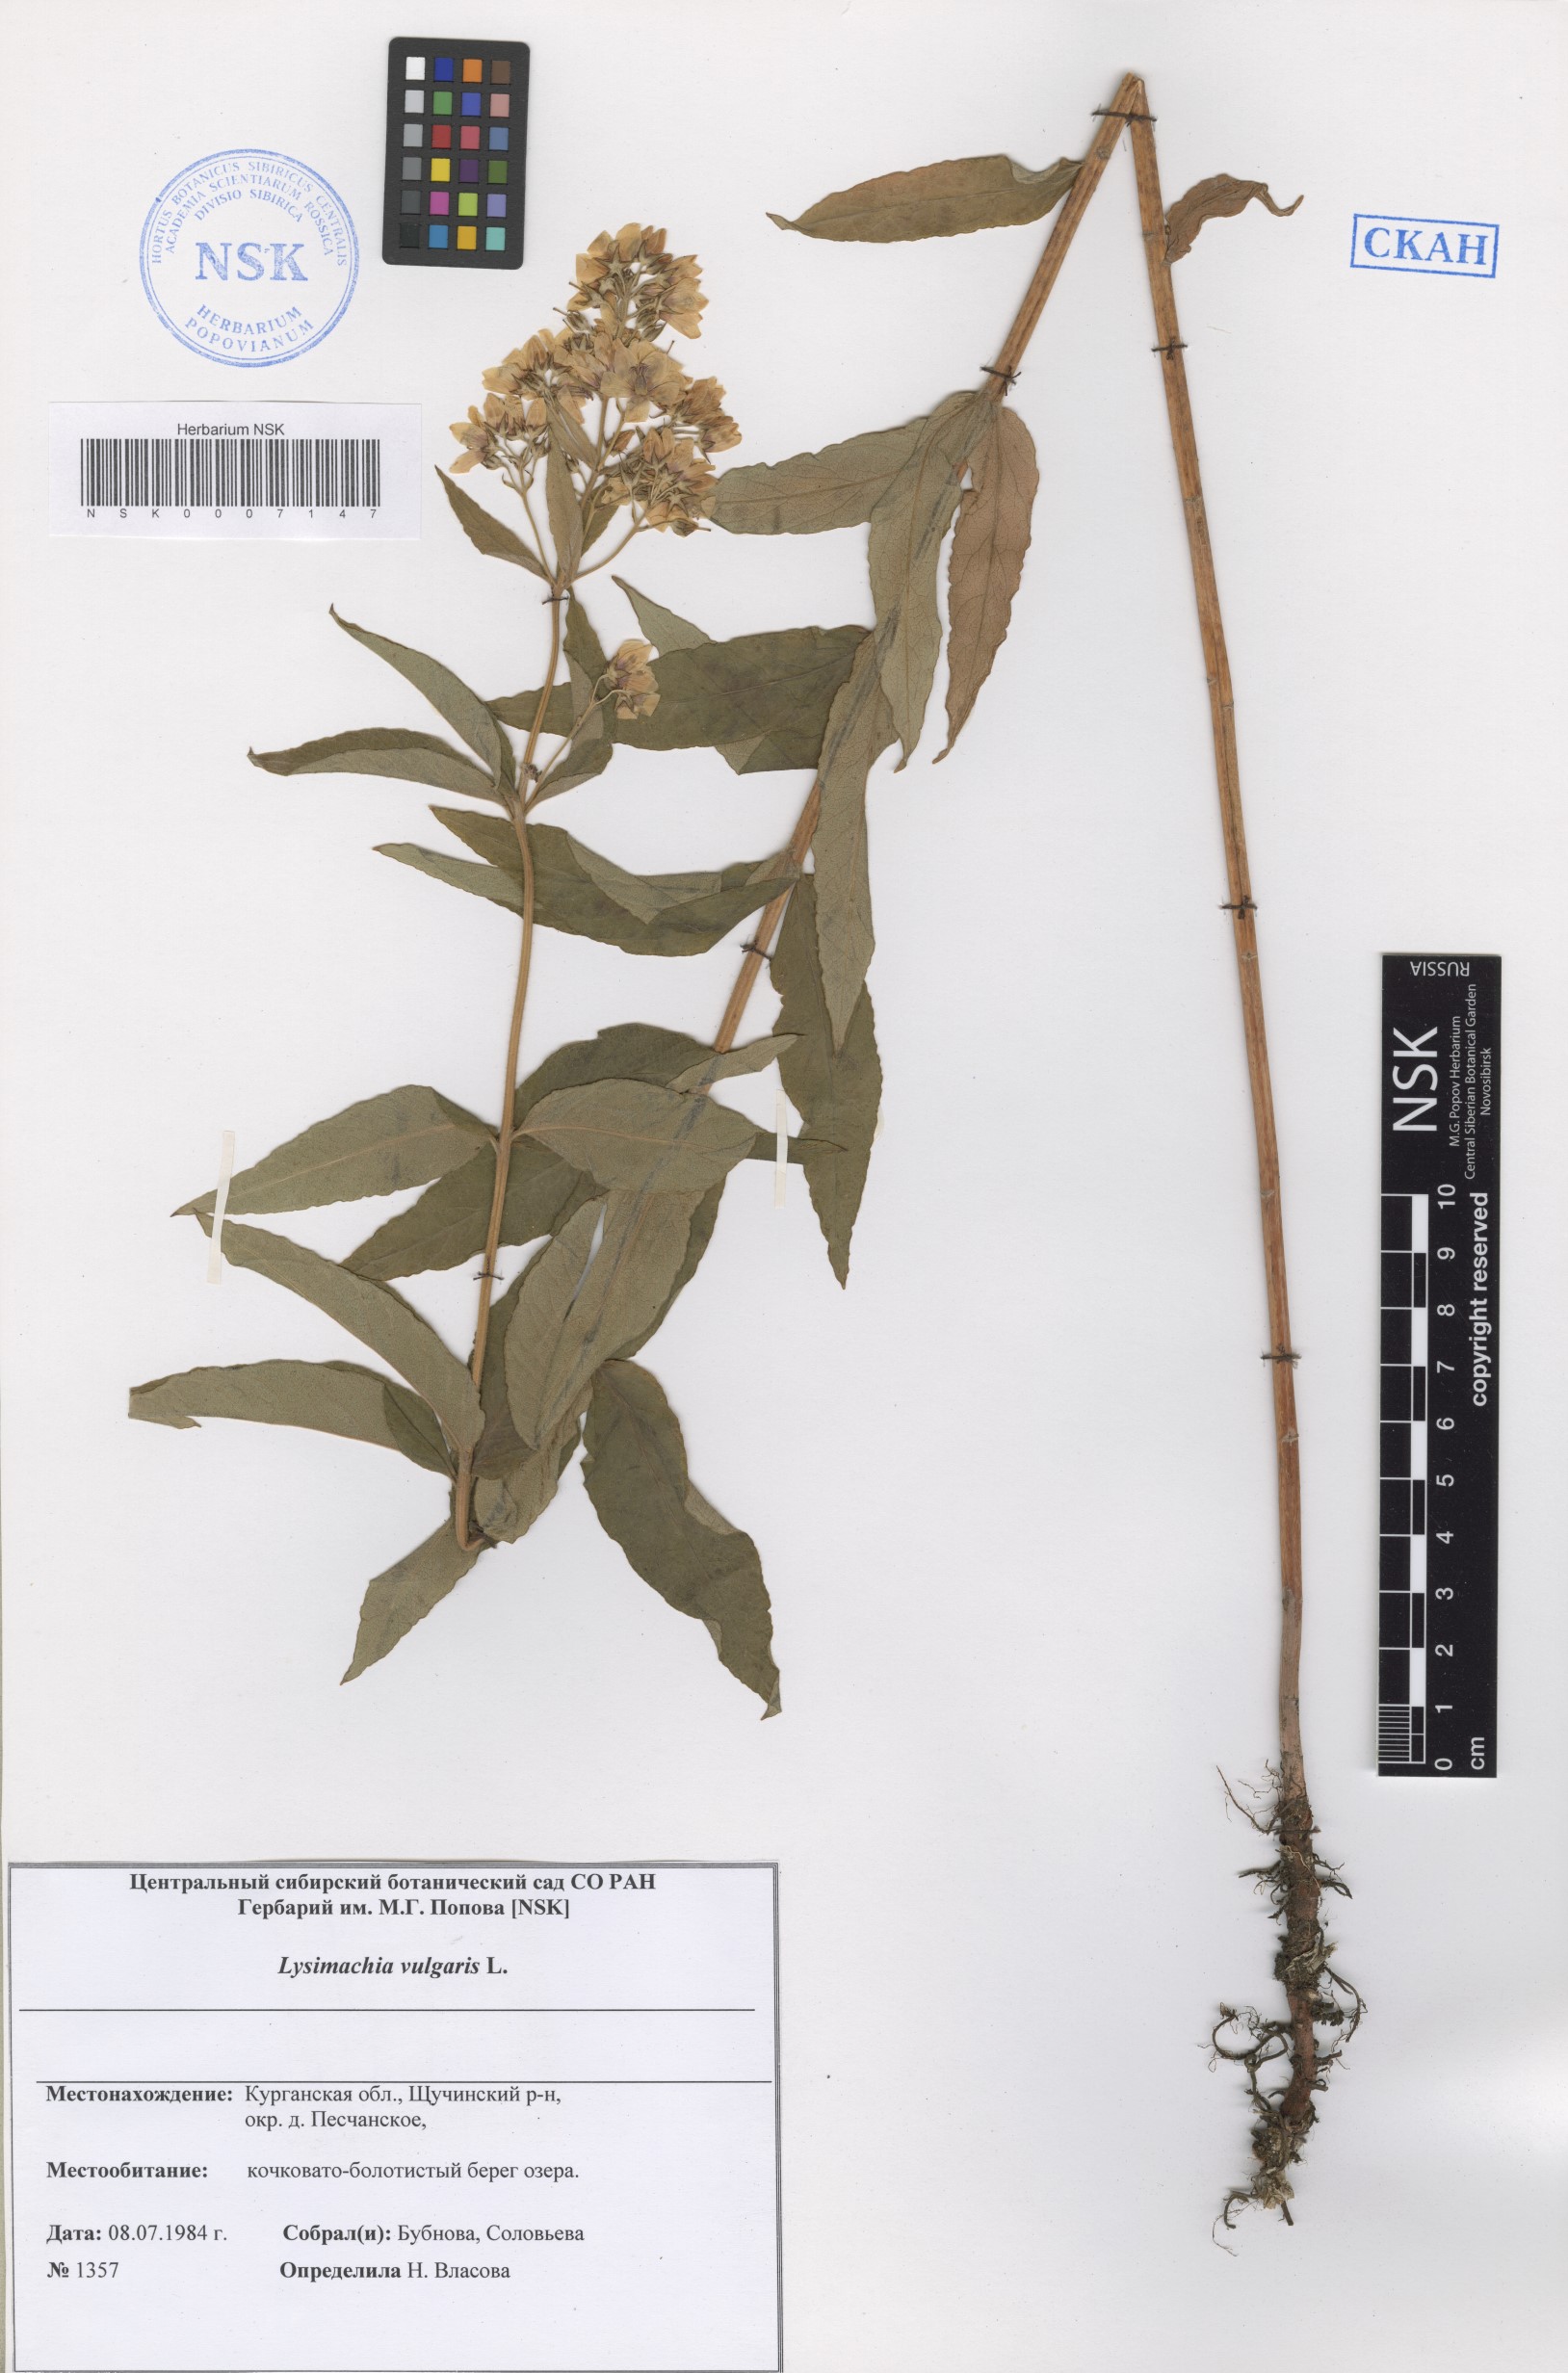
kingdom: Plantae
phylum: Tracheophyta
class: Magnoliopsida
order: Ericales
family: Primulaceae
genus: Lysimachia
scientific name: Lysimachia vulgaris
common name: Yellow loosestrife
